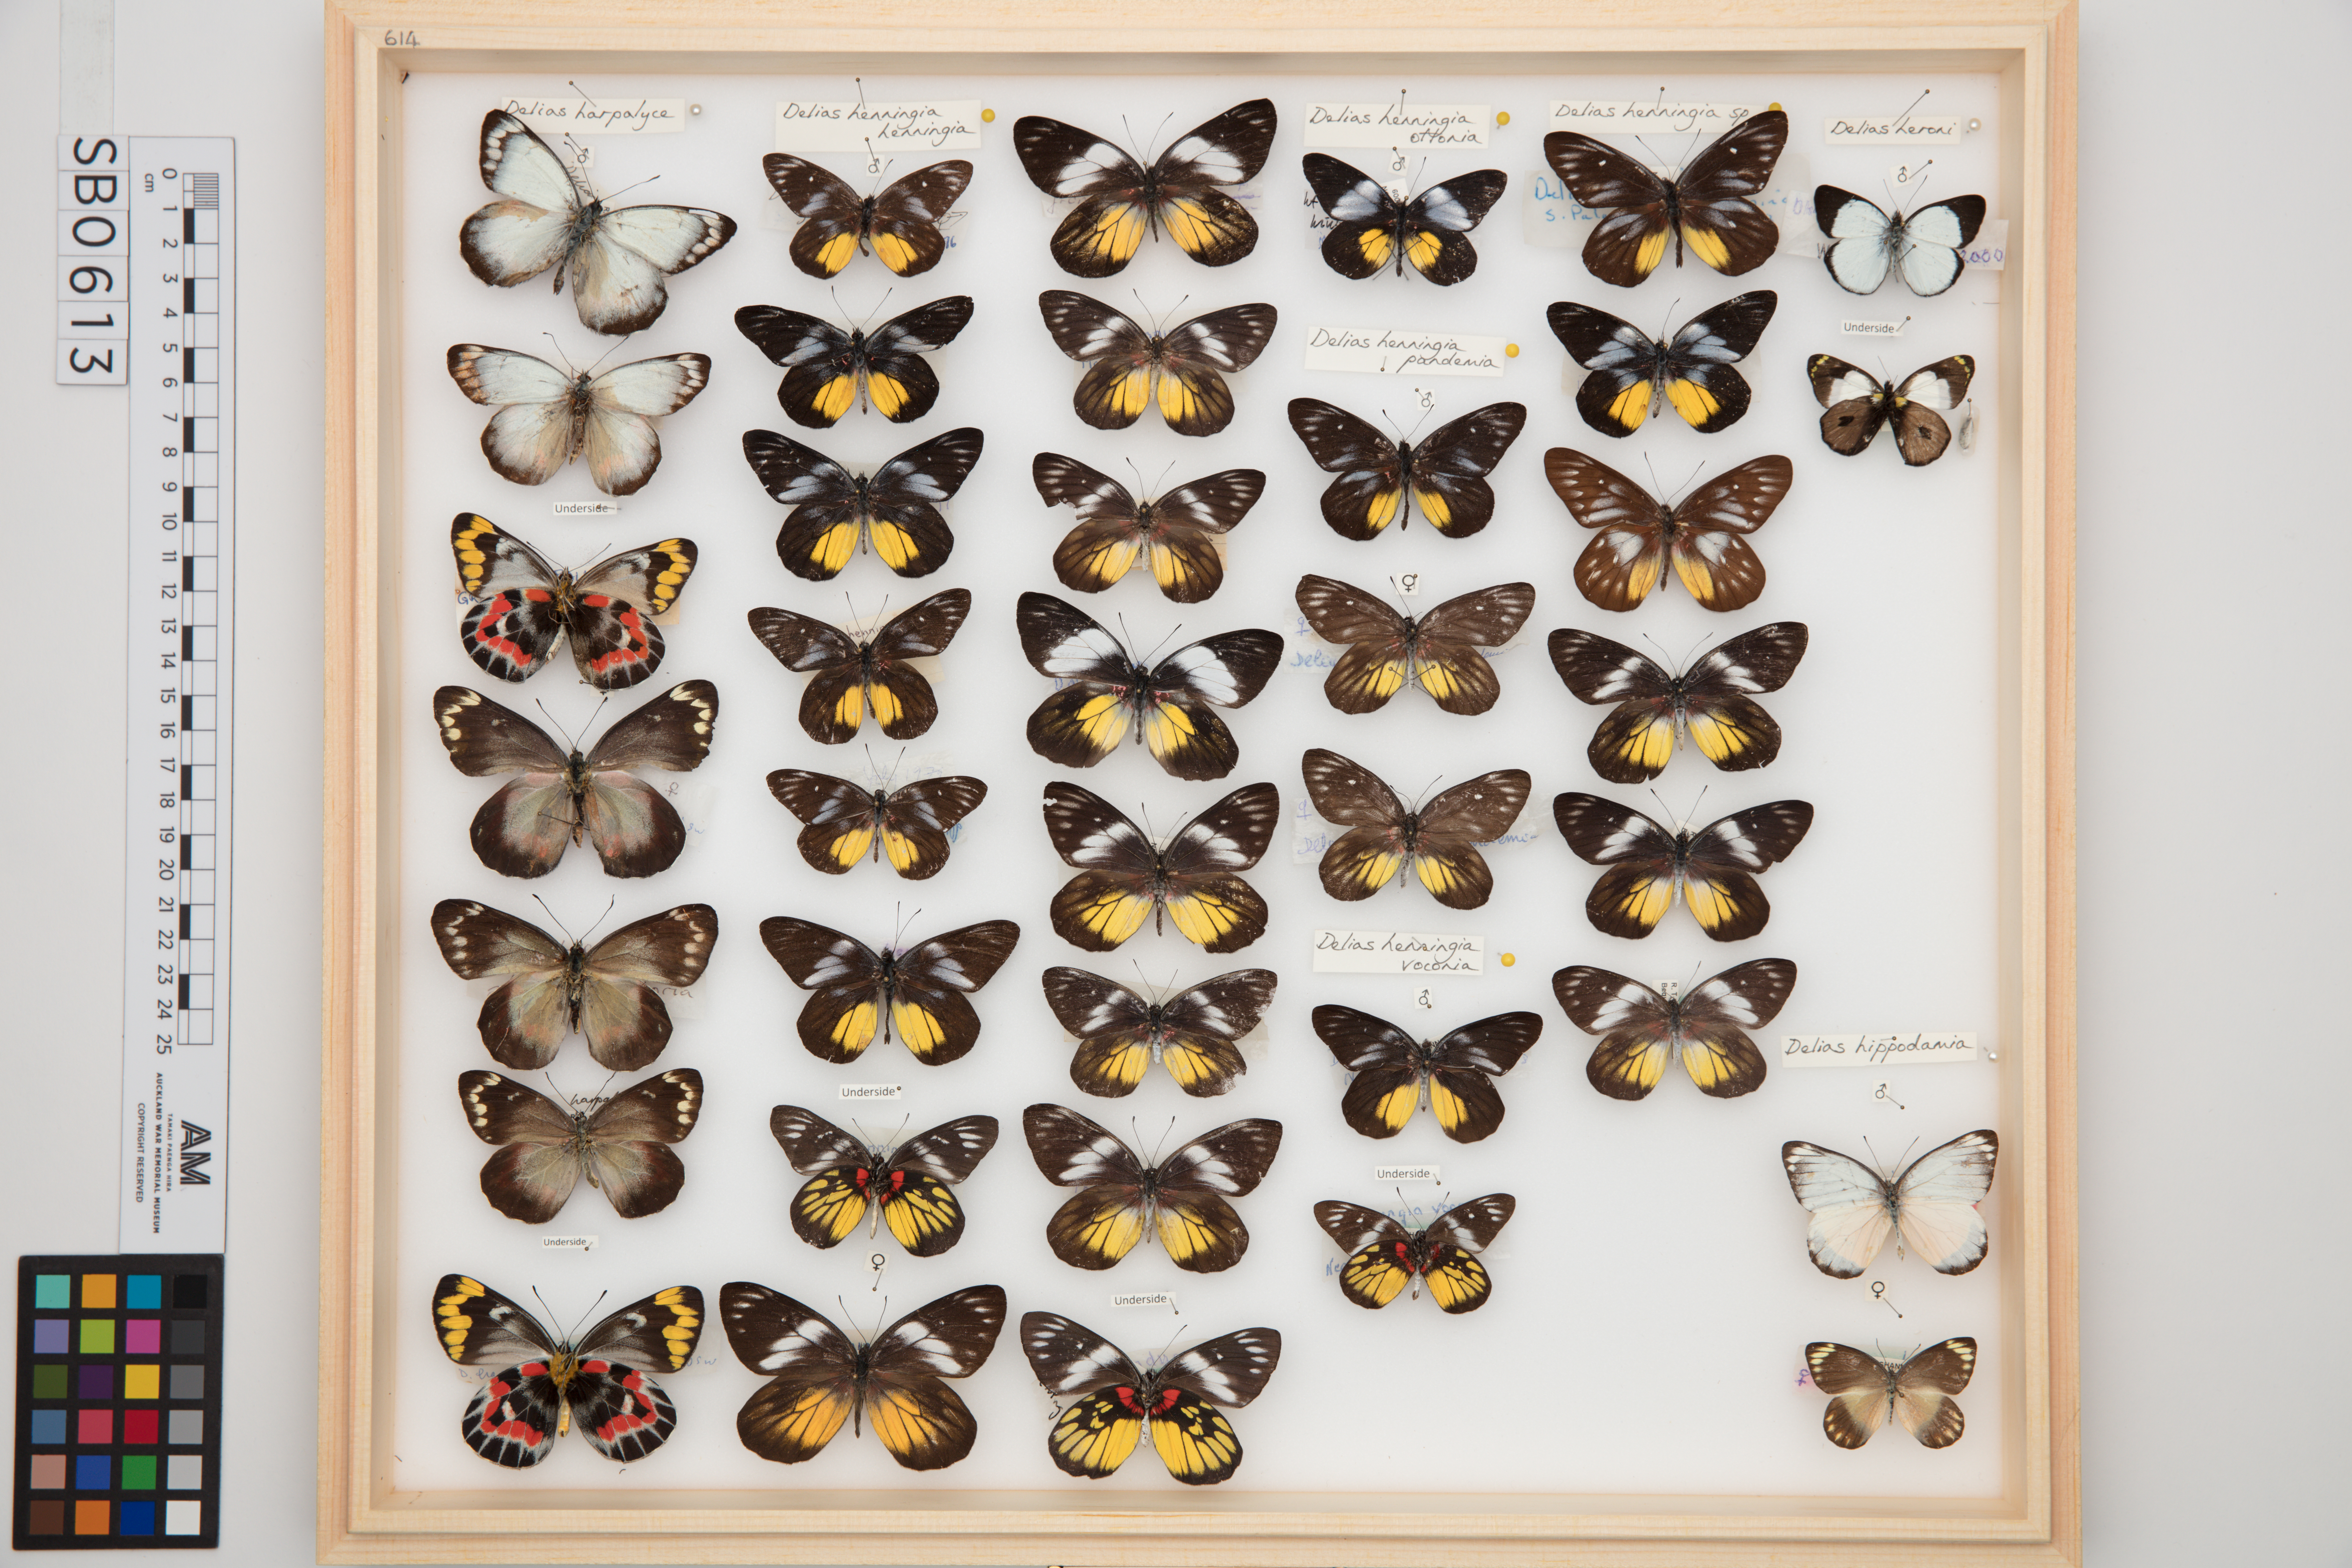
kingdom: Animalia
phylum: Arthropoda
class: Insecta
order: Lepidoptera
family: Pieridae
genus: Delias
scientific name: Delias henningia
